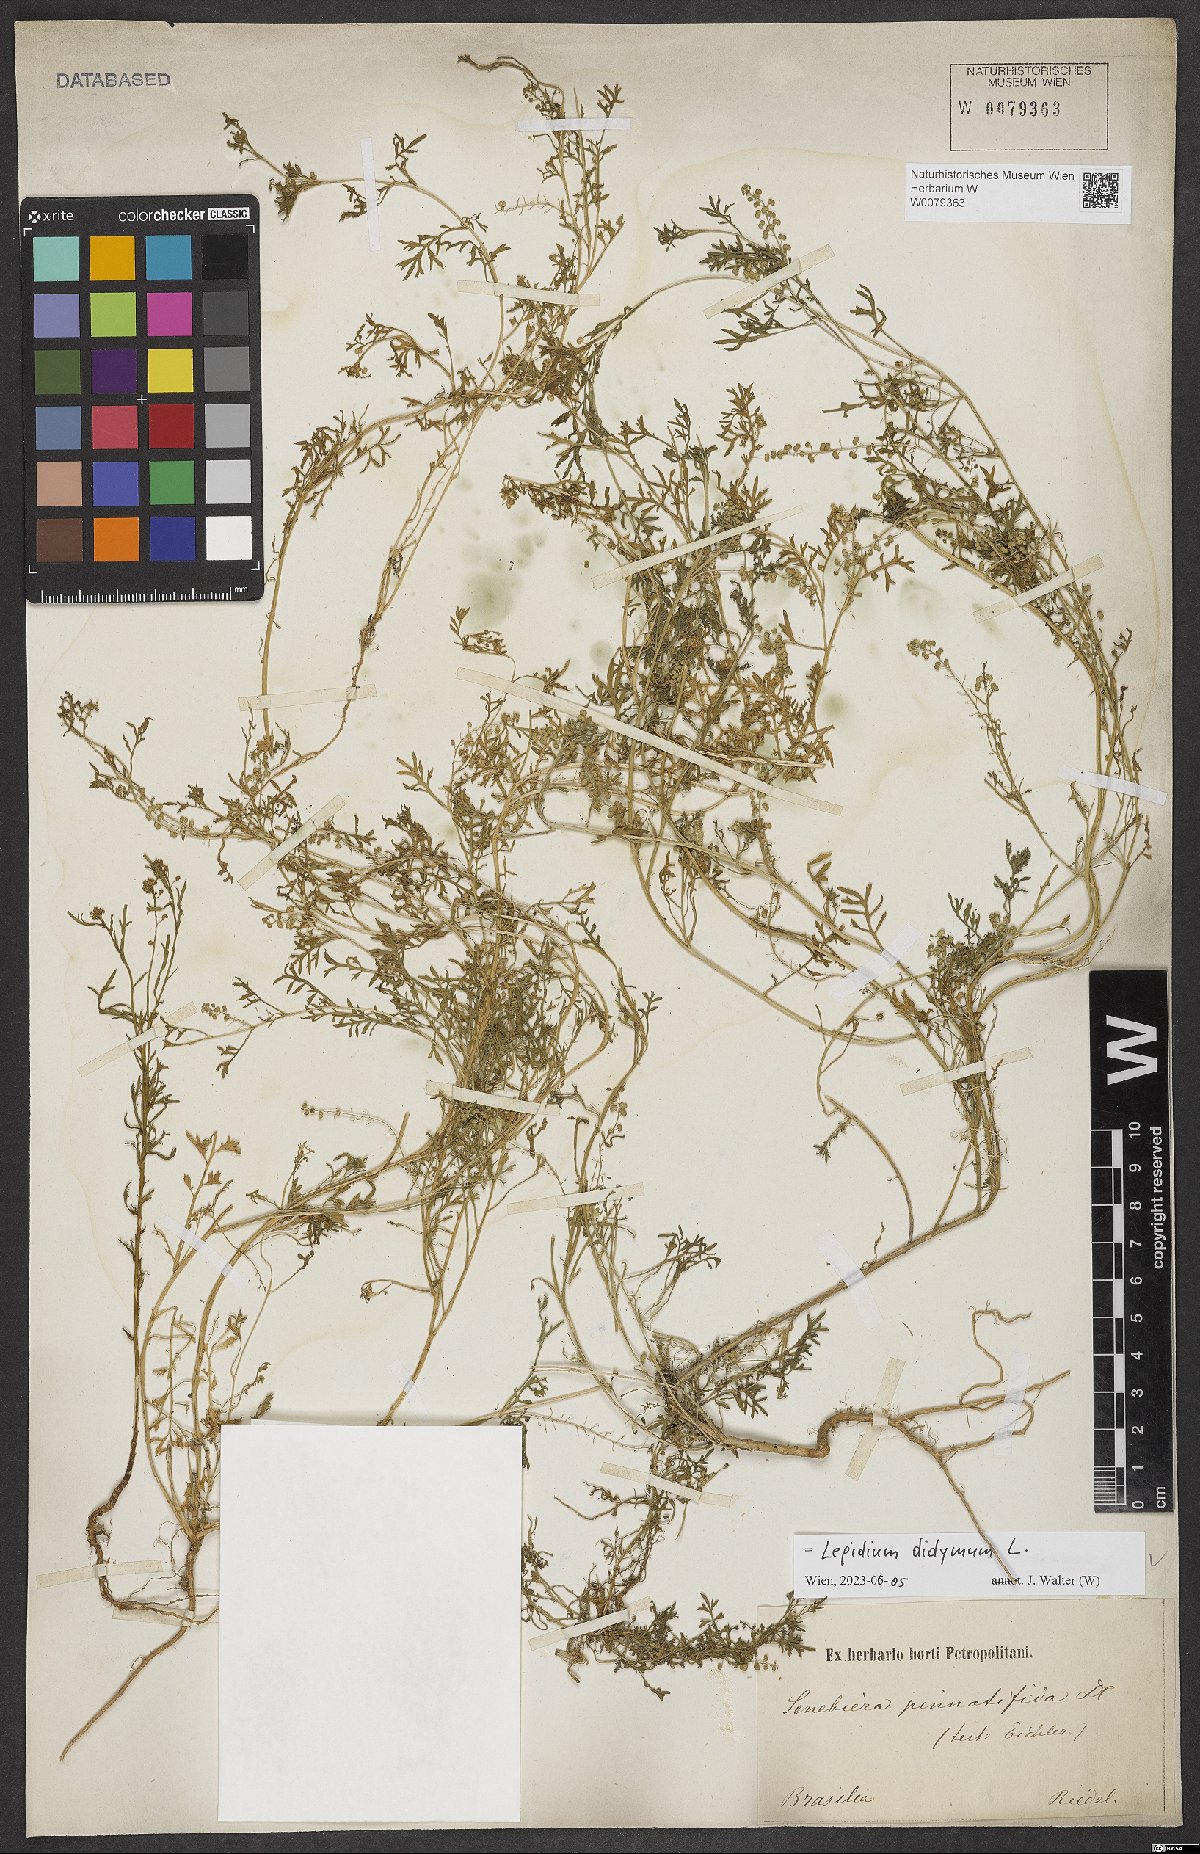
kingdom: Plantae
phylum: Tracheophyta
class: Magnoliopsida
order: Brassicales
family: Brassicaceae
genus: Lepidium
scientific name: Lepidium didymum
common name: Lesser swinecress
